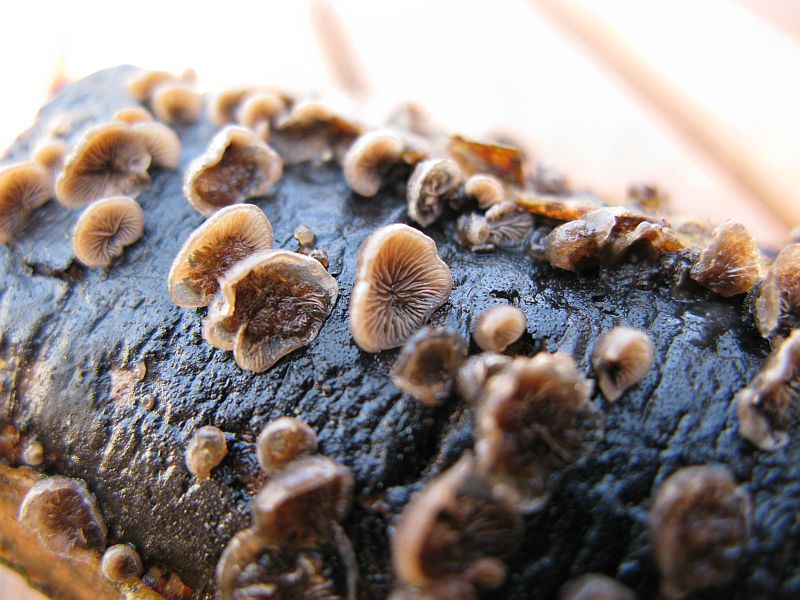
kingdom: Fungi
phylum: Basidiomycota
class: Agaricomycetes
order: Agaricales
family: Pleurotaceae
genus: Resupinatus
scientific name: Resupinatus applicatus
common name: lysfiltet barkhat
